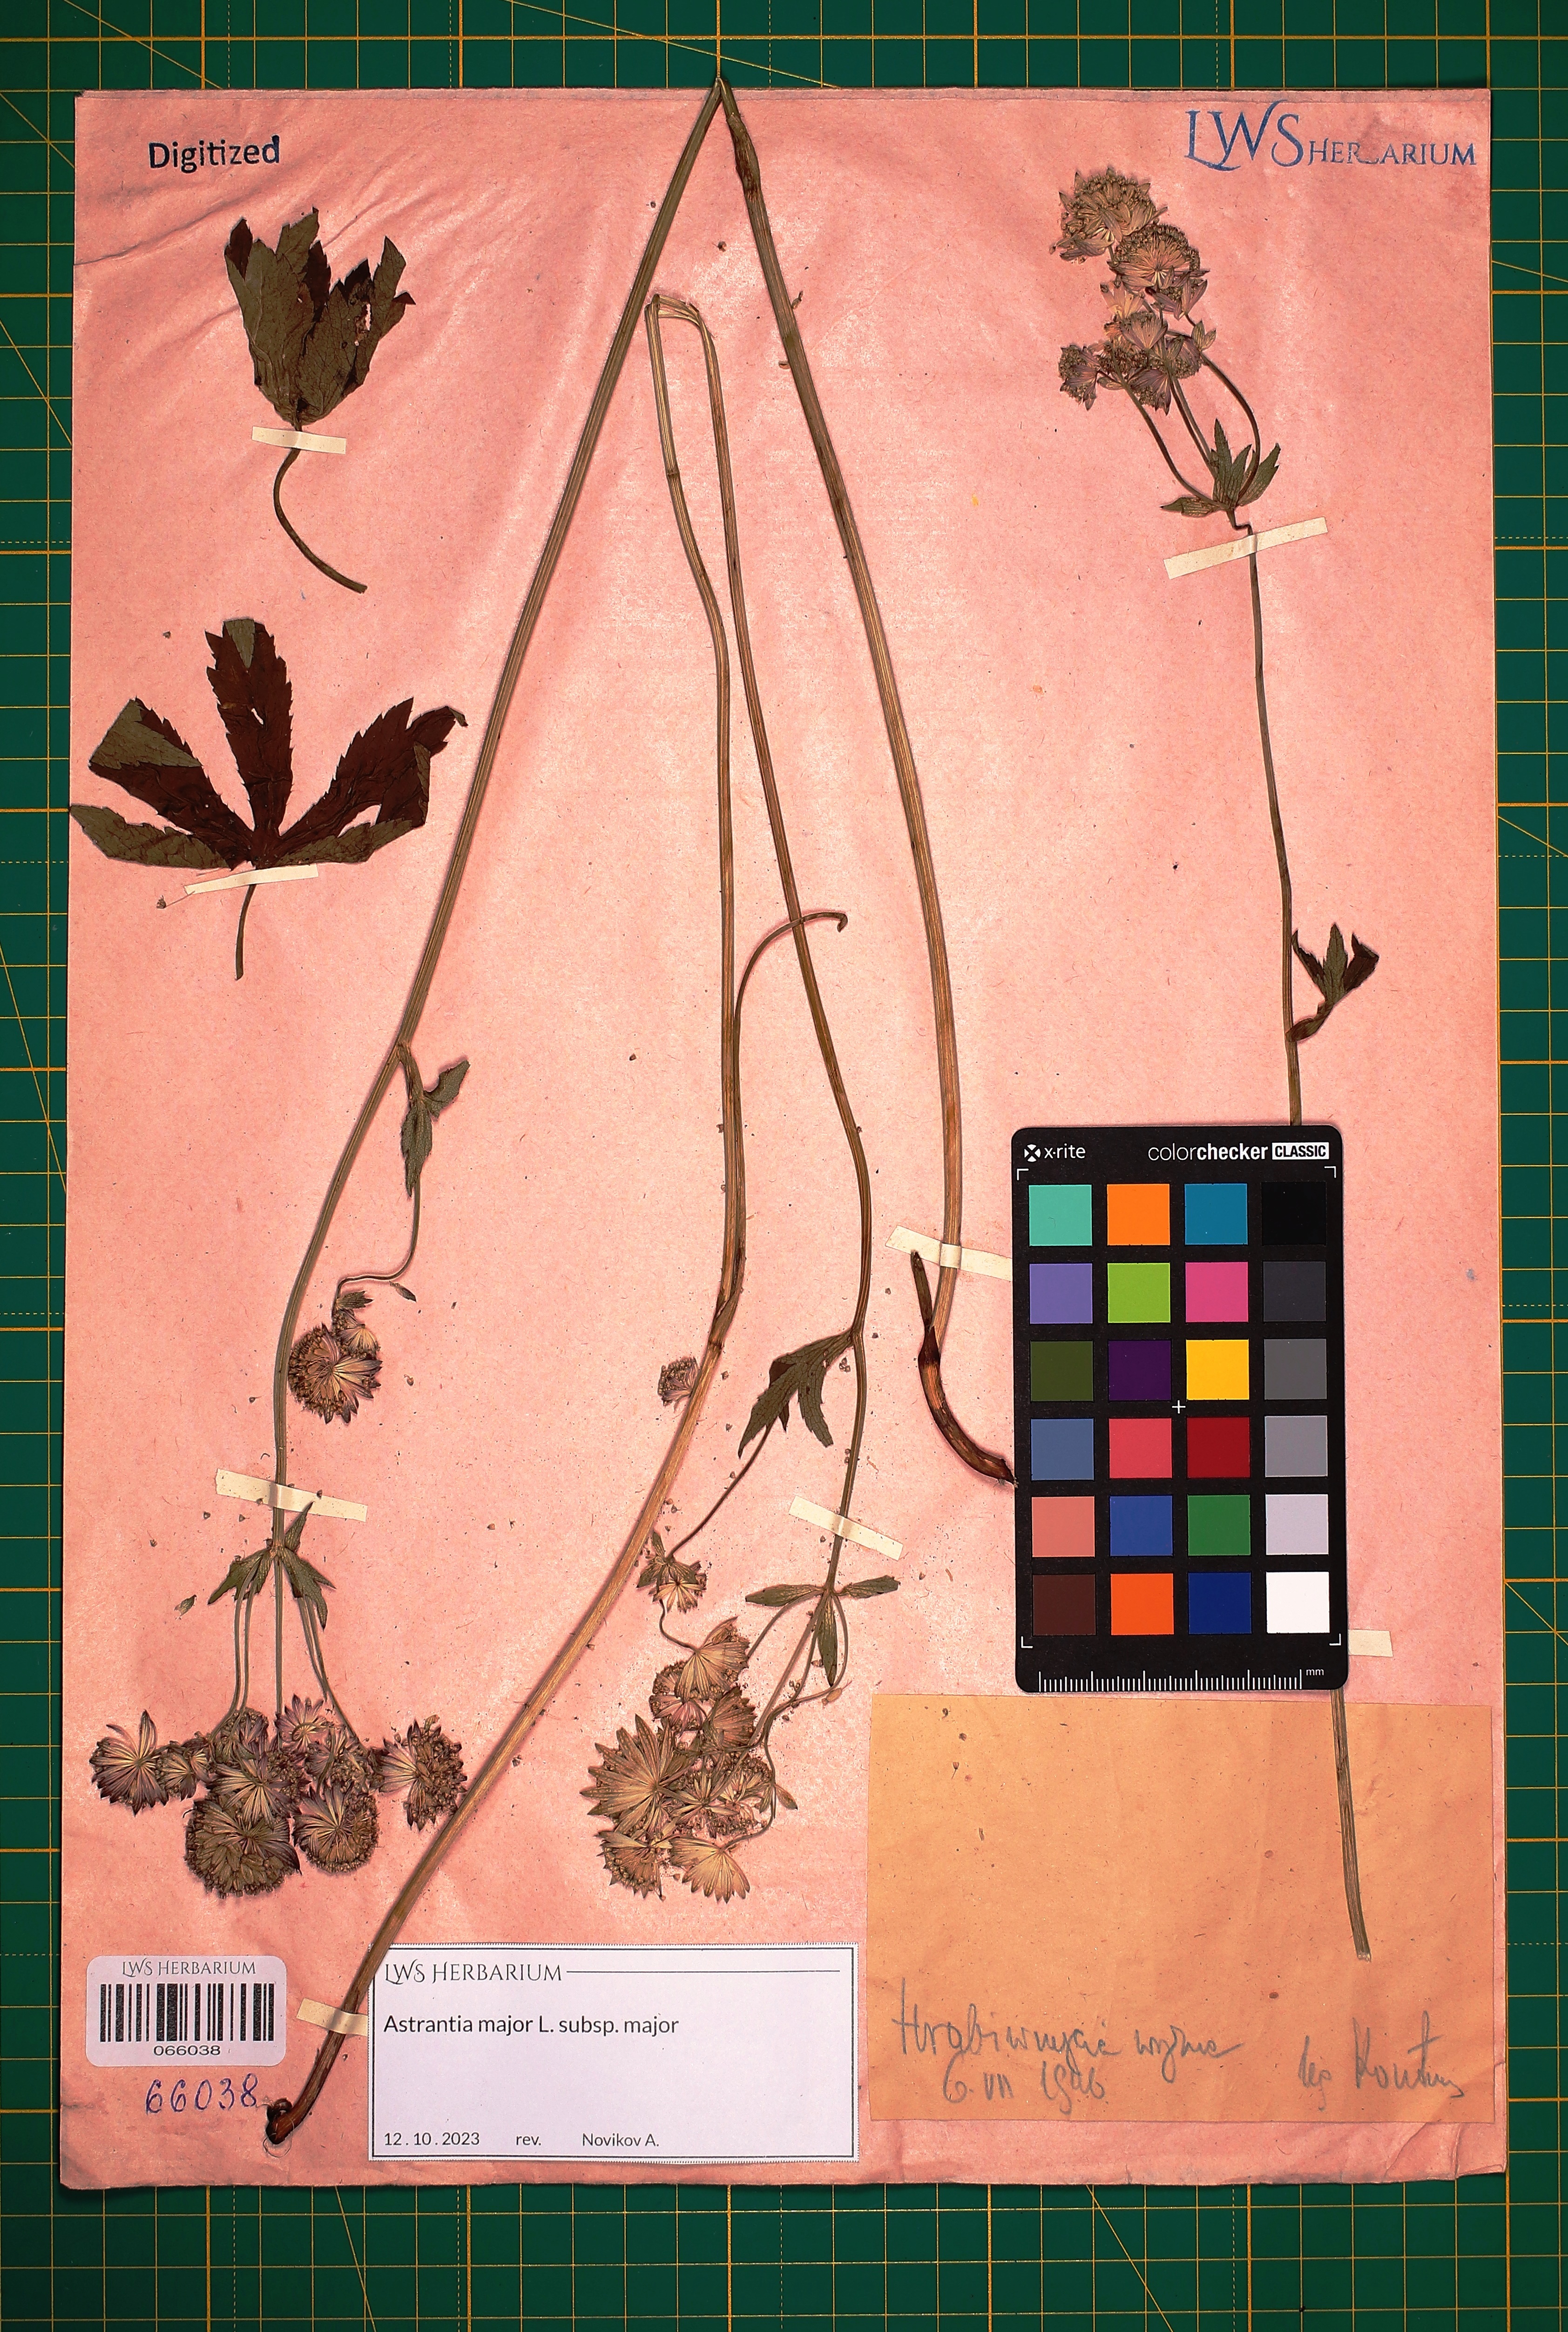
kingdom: Plantae
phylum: Tracheophyta
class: Magnoliopsida
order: Apiales
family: Apiaceae
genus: Astrantia
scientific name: Astrantia major
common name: Greater masterwort
